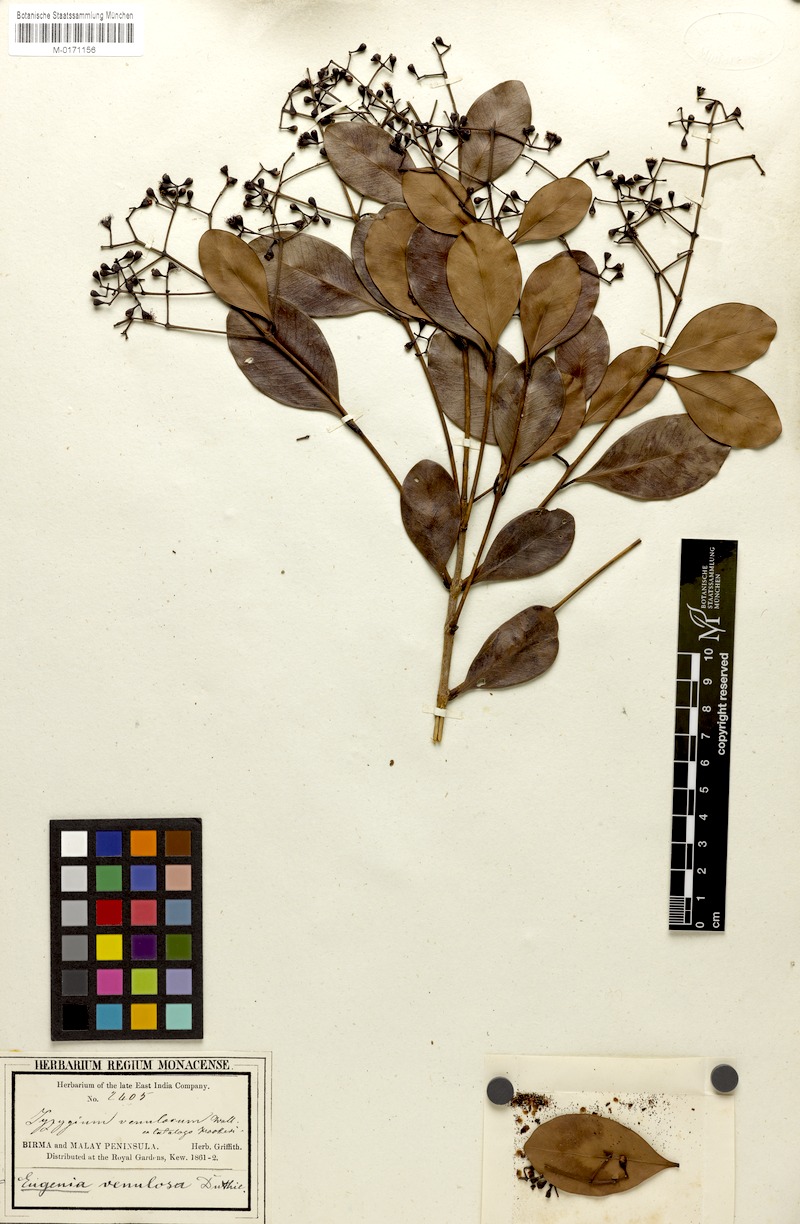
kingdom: Plantae
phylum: Tracheophyta
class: Magnoliopsida
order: Myrtales
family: Myrtaceae
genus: Syzygium
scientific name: Syzygium muelleri
